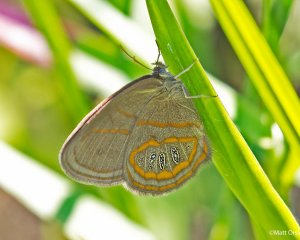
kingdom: Animalia
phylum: Arthropoda
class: Insecta
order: Lepidoptera
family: Nymphalidae
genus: Euptychia
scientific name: Euptychia phocion
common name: Georgia Satyr
